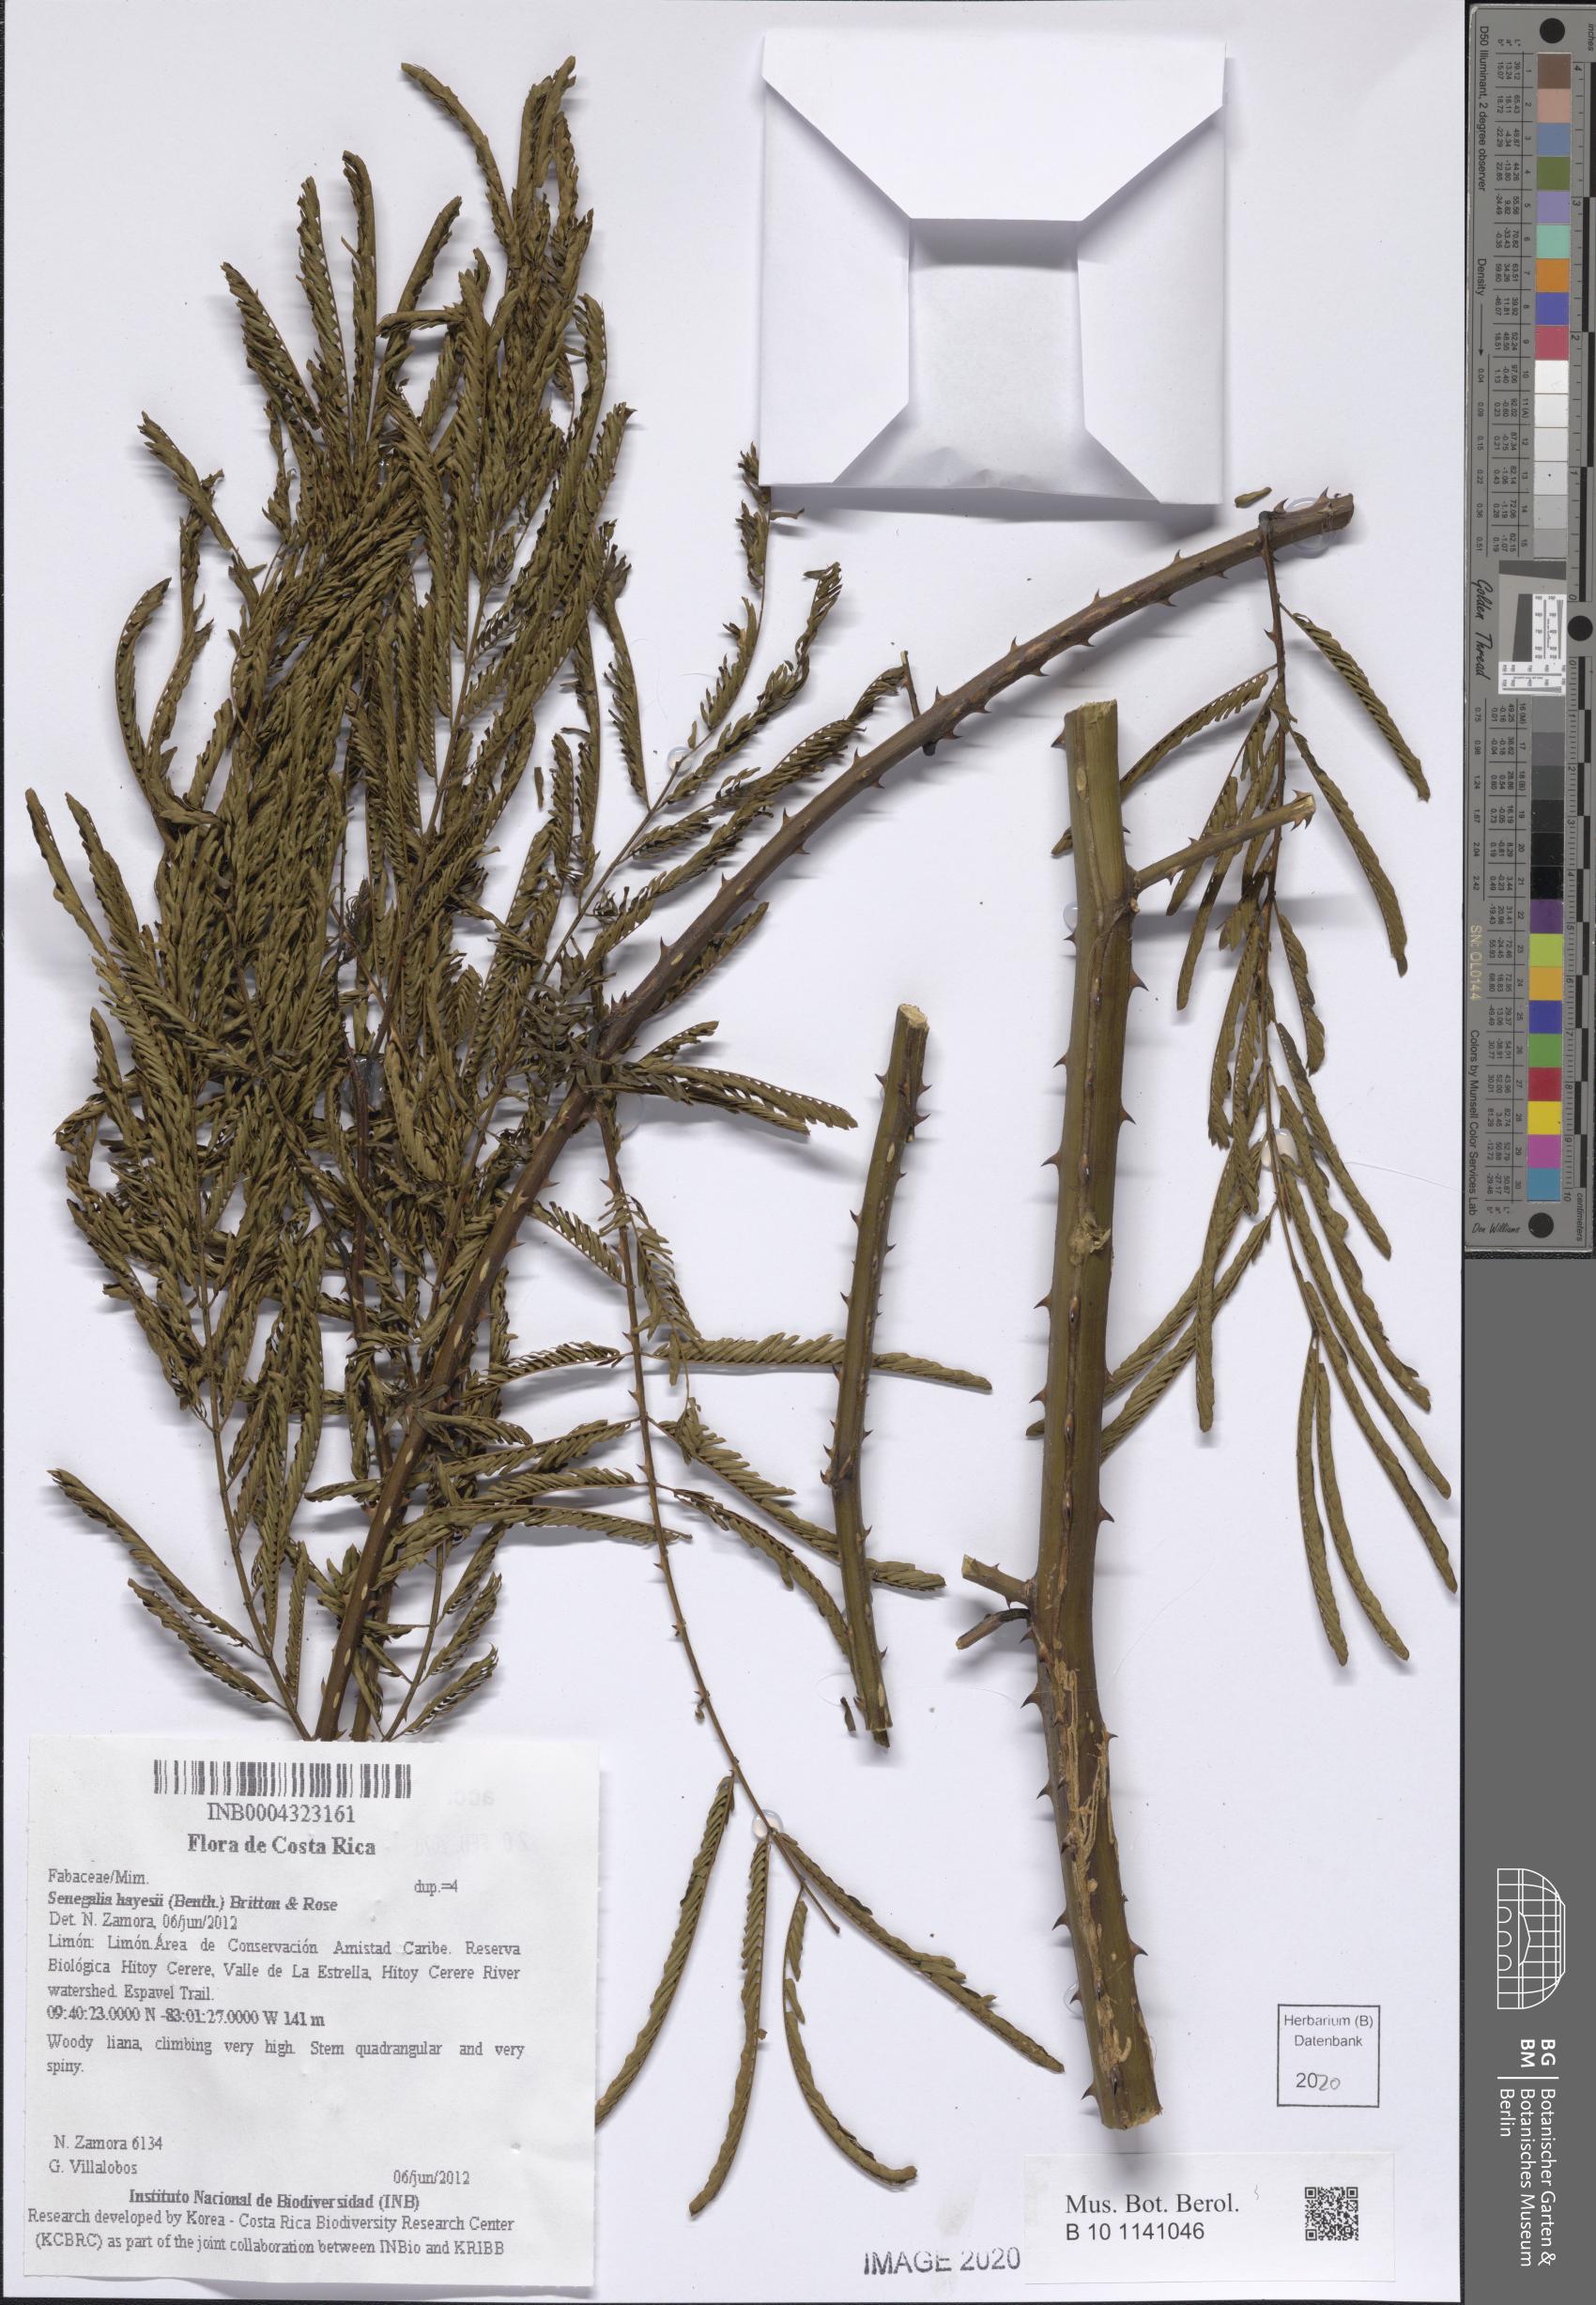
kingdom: Plantae
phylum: Tracheophyta
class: Magnoliopsida
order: Fabales
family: Fabaceae
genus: Senegalia
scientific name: Senegalia hayesii
